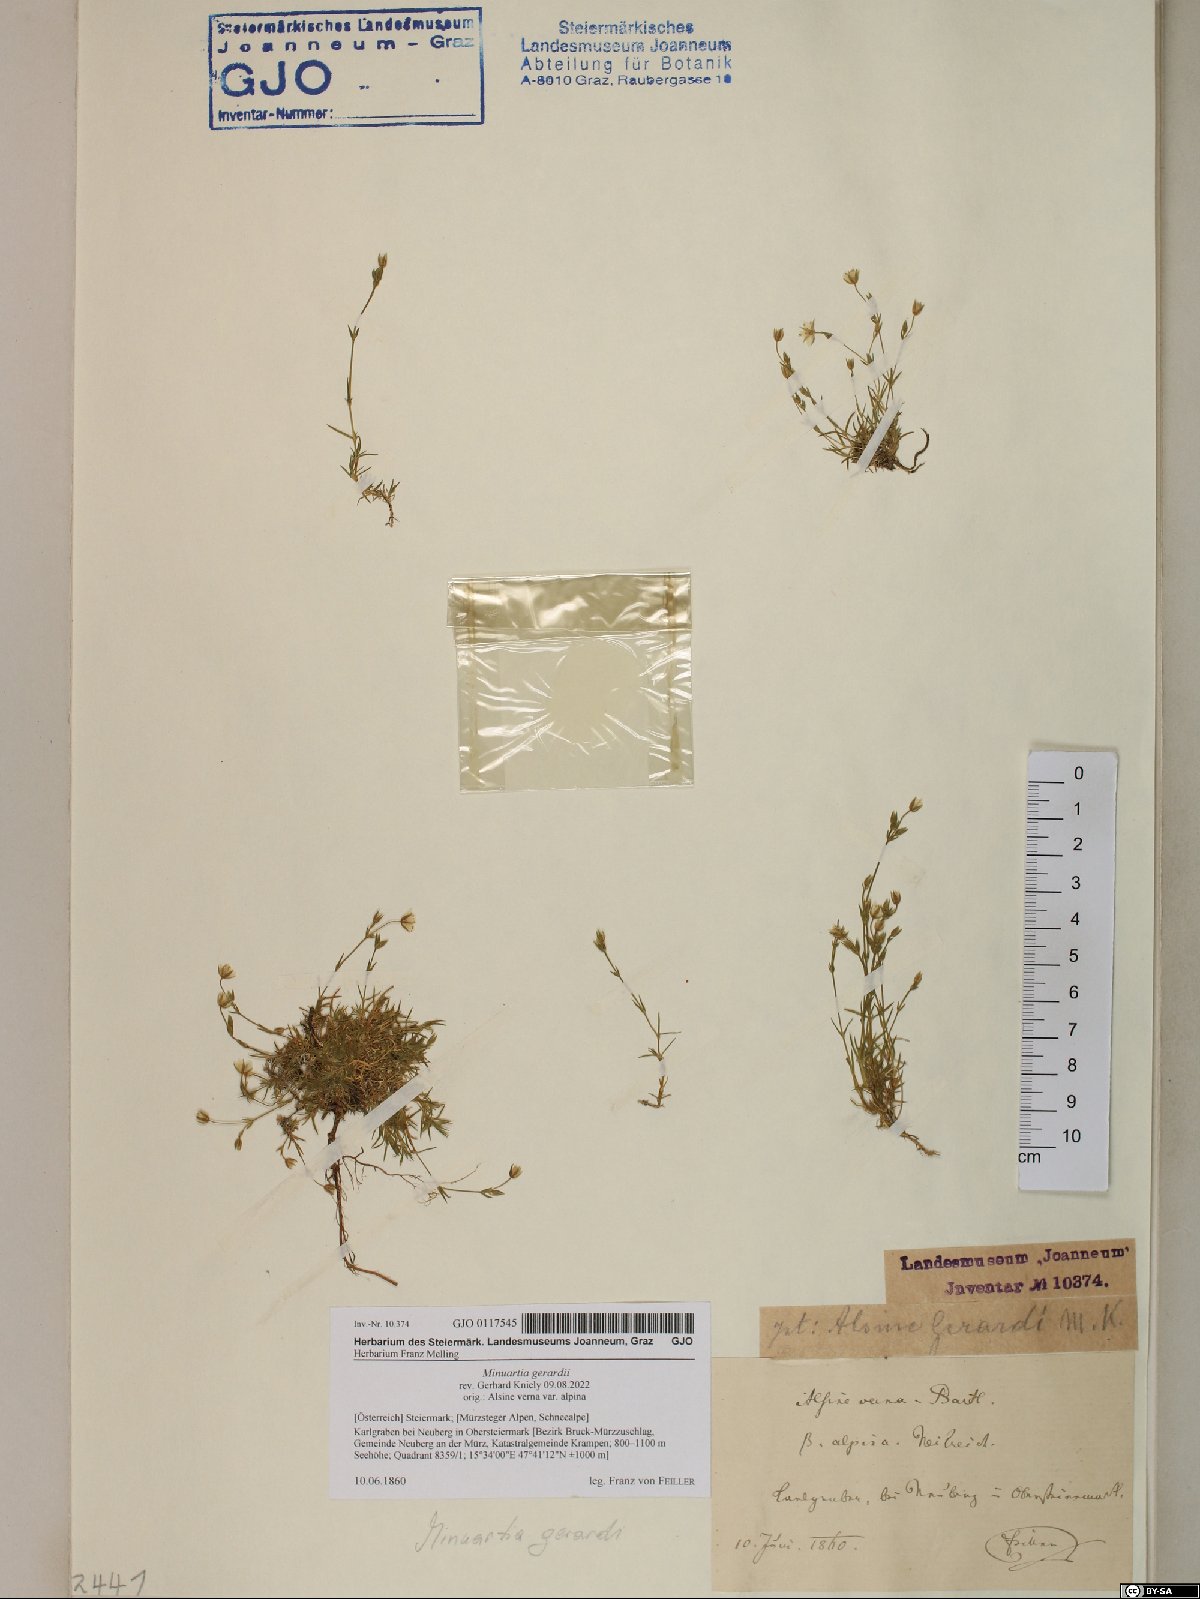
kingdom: Plantae
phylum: Tracheophyta
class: Magnoliopsida
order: Caryophyllales
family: Caryophyllaceae
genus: Sabulina
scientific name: Sabulina verna
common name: Spring sandwort
